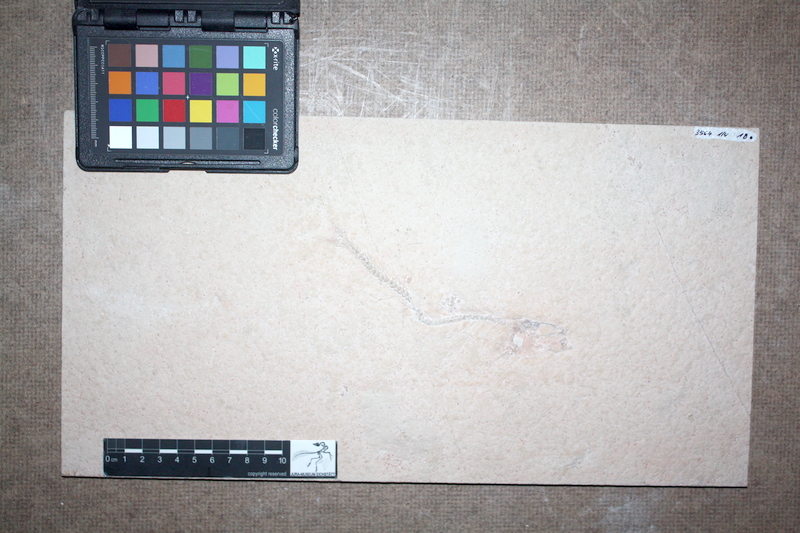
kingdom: Animalia
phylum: Chordata
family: Ascalaboidae
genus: Tharsis
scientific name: Tharsis dubius
